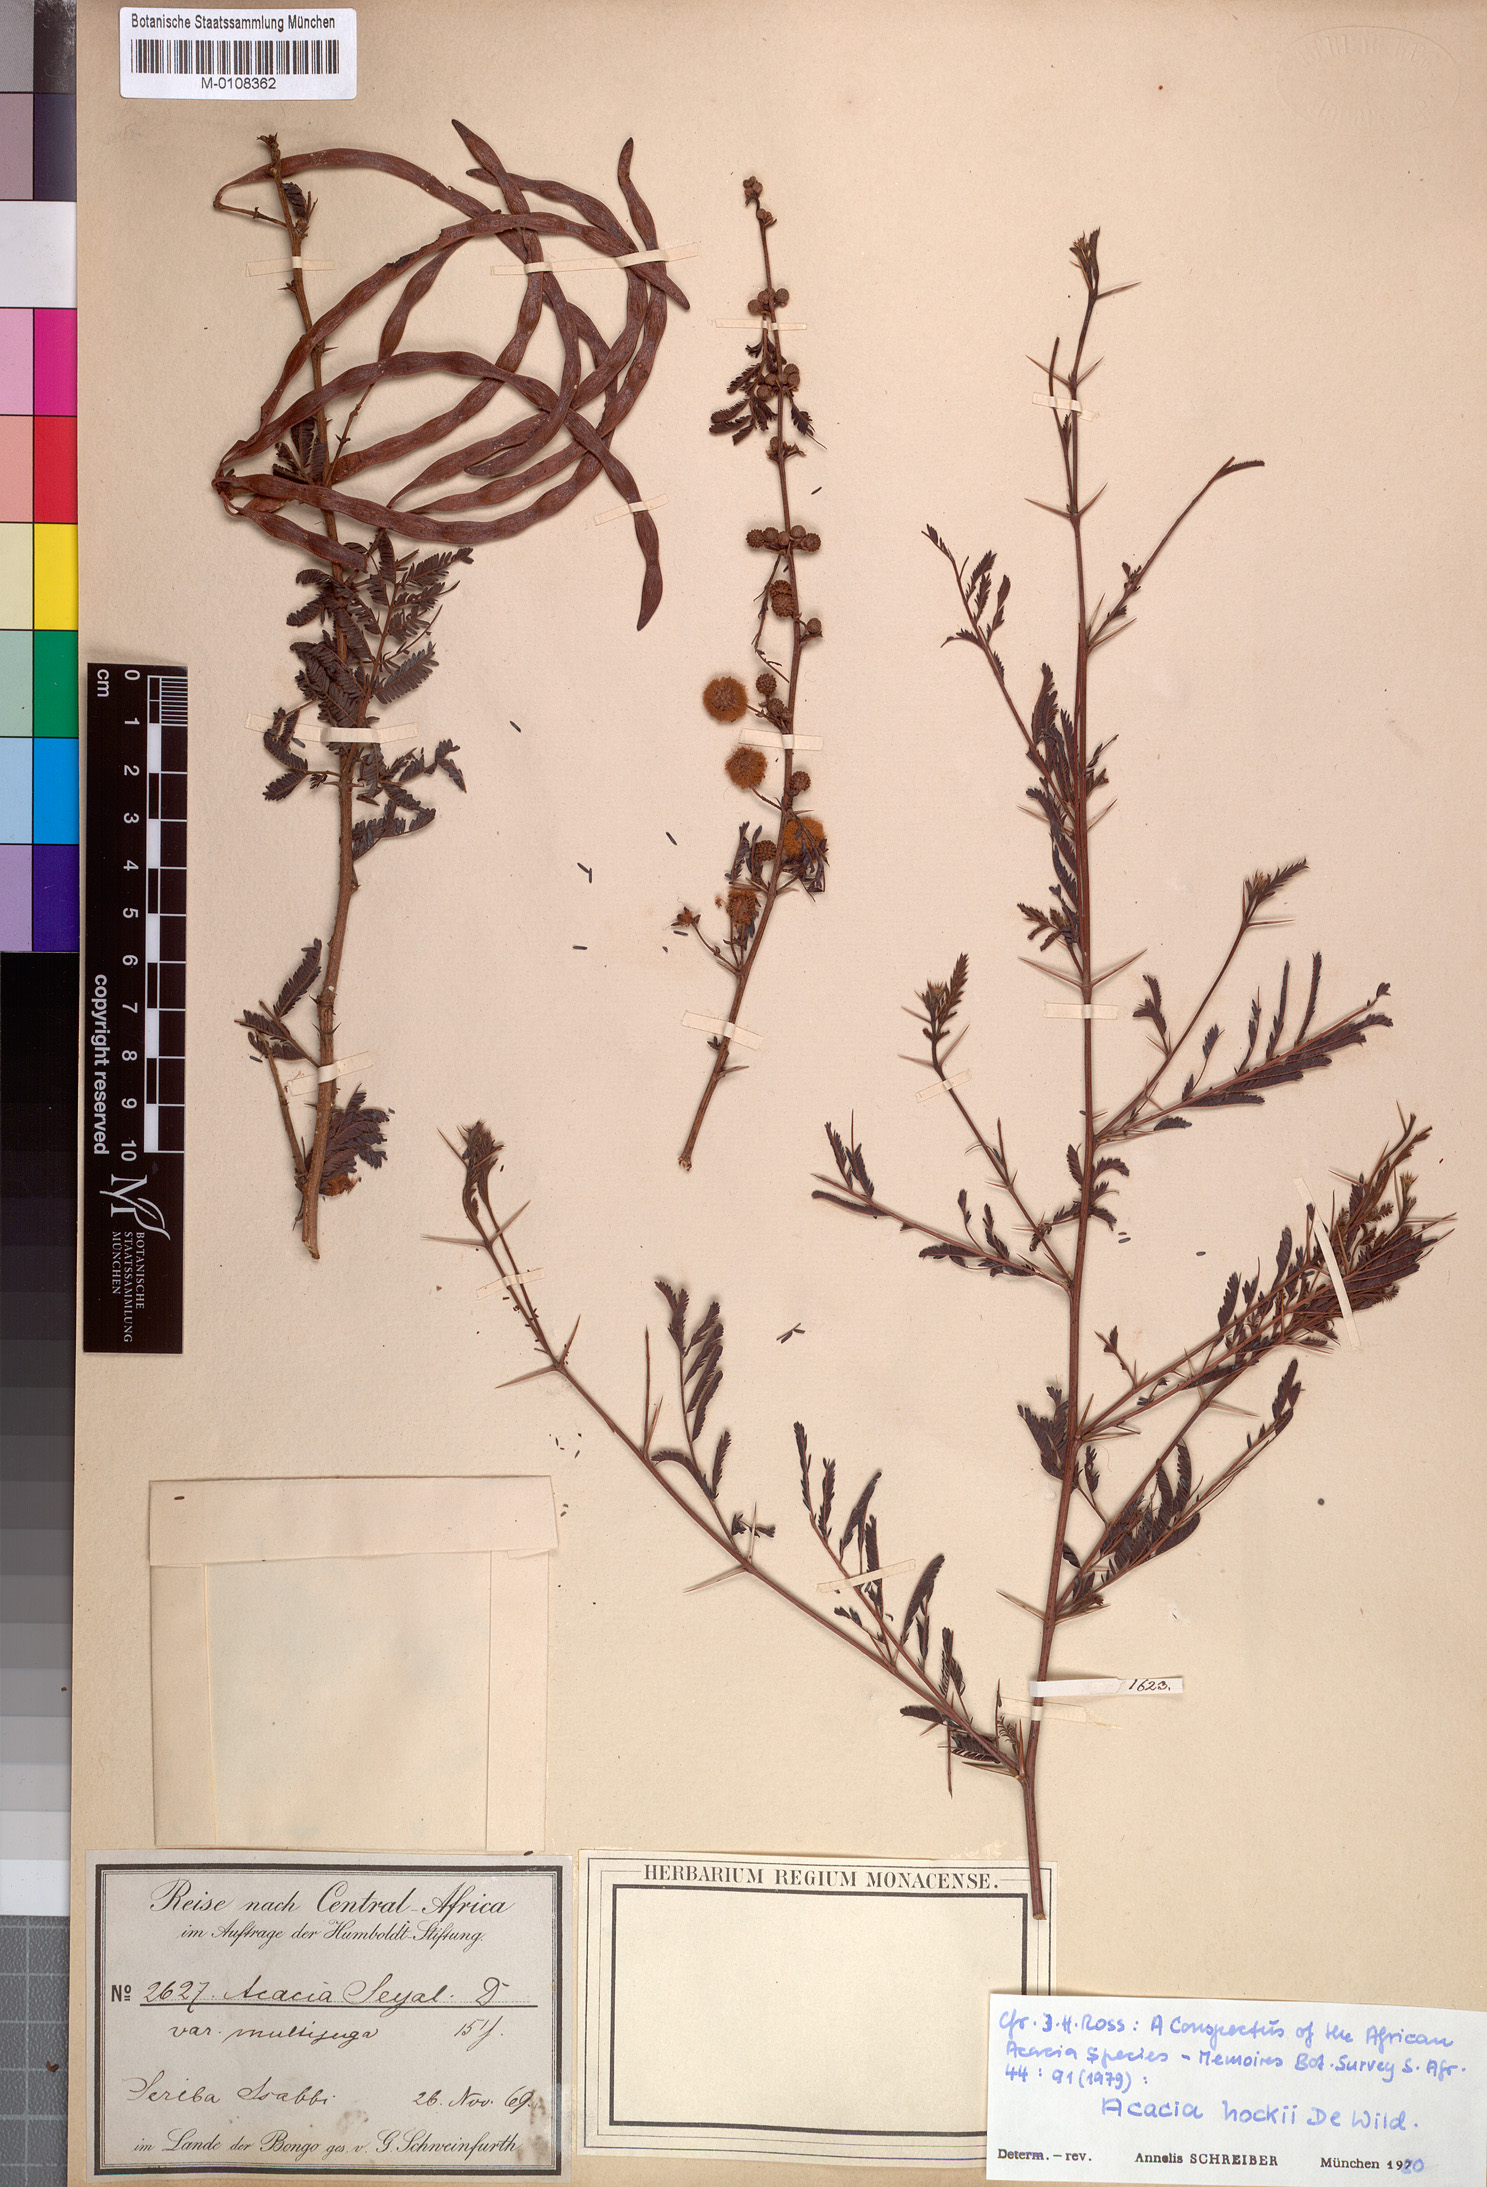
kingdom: Plantae
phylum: Tracheophyta
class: Magnoliopsida
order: Fabales
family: Fabaceae
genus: Vachellia
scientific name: Vachellia hockii
